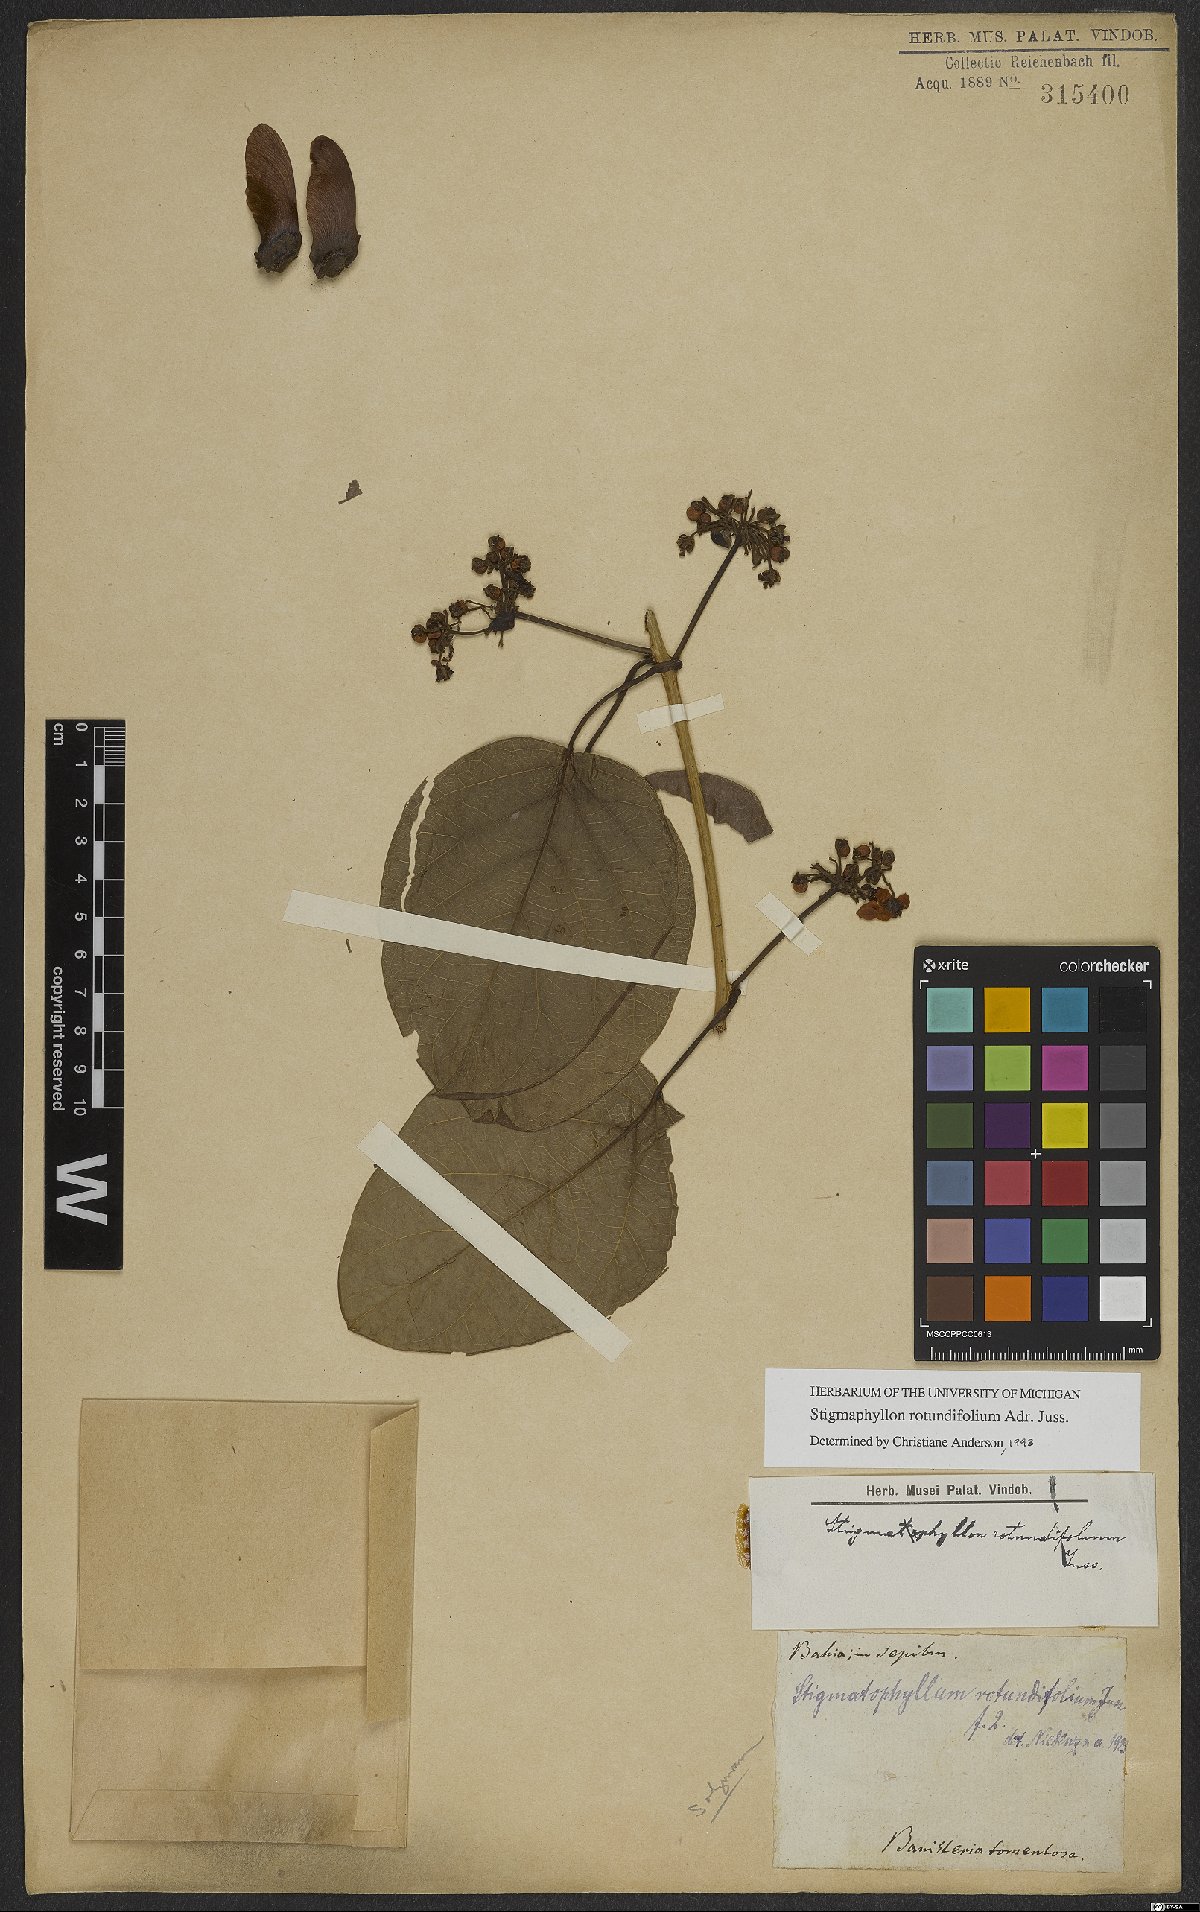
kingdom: Plantae
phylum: Tracheophyta
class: Magnoliopsida
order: Malpighiales
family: Malpighiaceae
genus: Stigmaphyllon
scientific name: Stigmaphyllon rotundifolium
